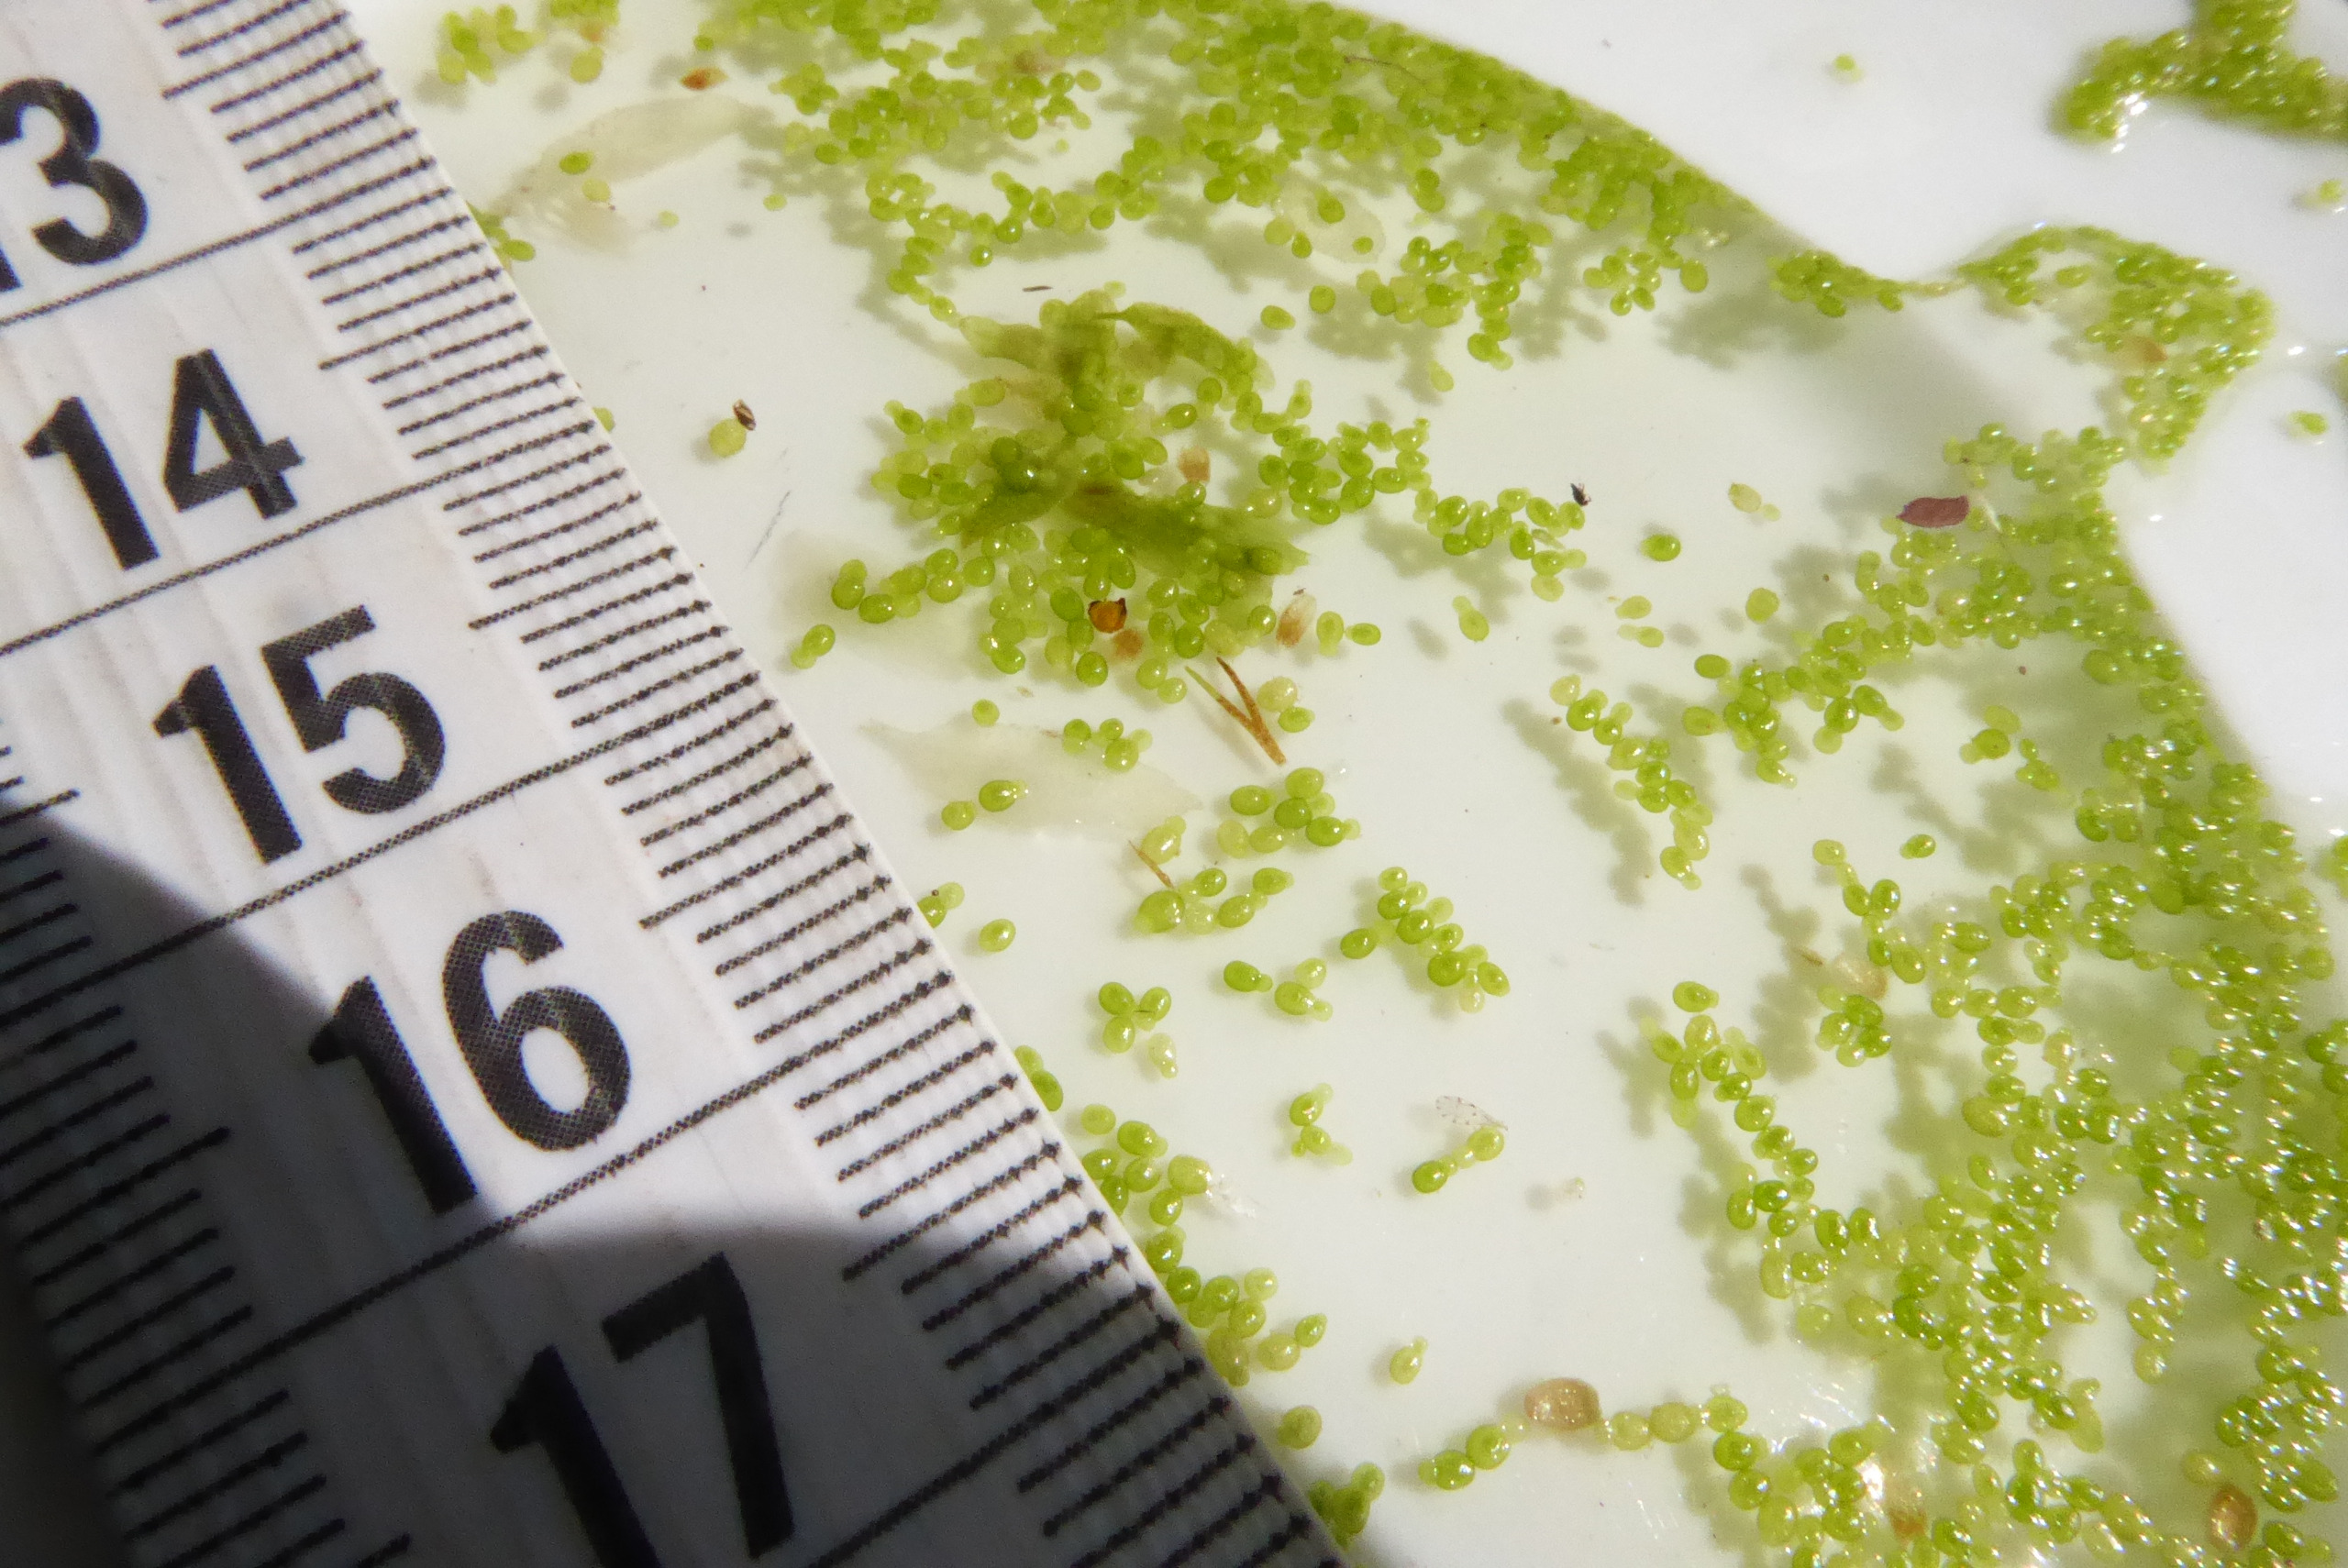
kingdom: Plantae
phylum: Tracheophyta
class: Liliopsida
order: Alismatales
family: Araceae
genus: Wolffia
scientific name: Wolffia columbiana
